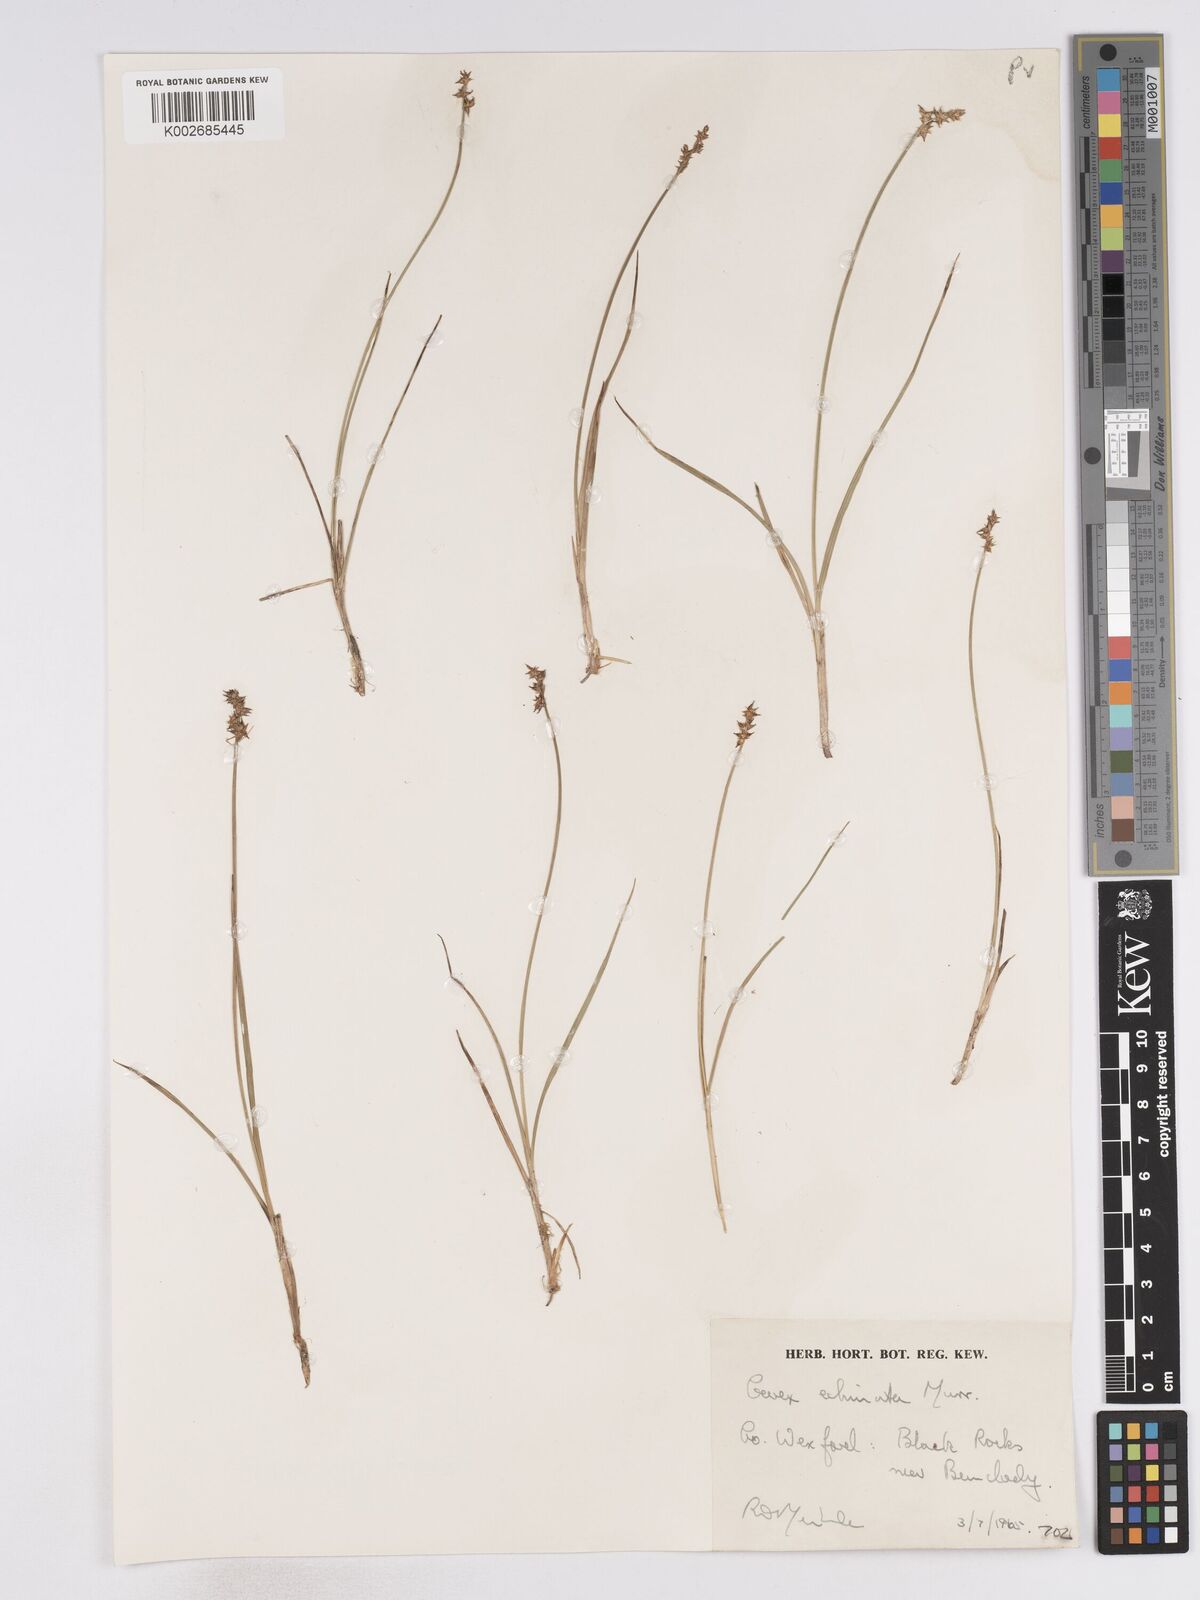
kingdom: Plantae
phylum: Tracheophyta
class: Liliopsida
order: Poales
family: Cyperaceae
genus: Carex
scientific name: Carex echinata
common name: Star sedge
